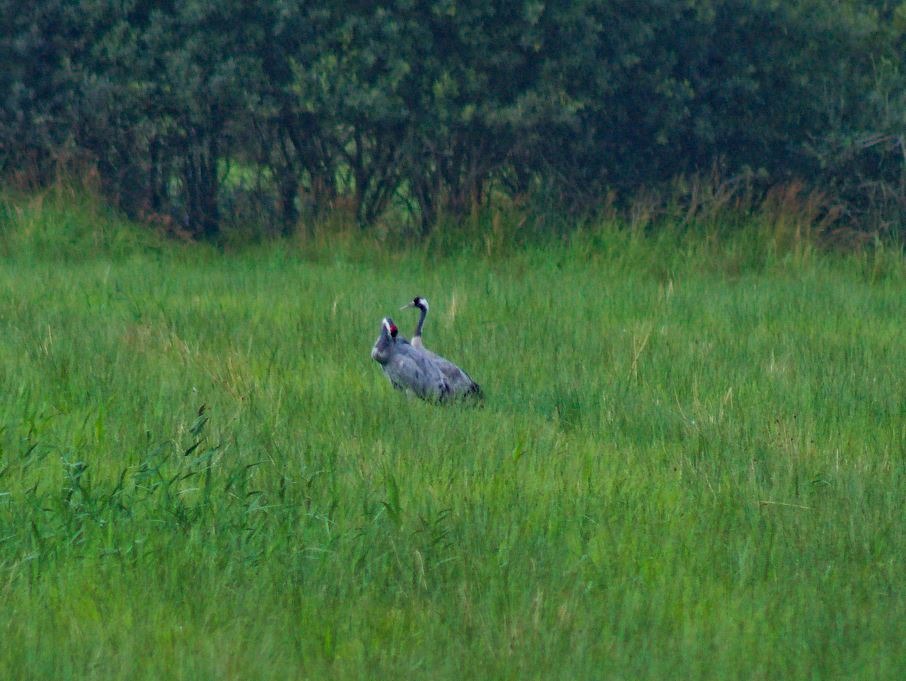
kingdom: Animalia
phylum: Chordata
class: Aves
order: Gruiformes
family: Gruidae
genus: Grus
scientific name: Grus grus
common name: Trane
